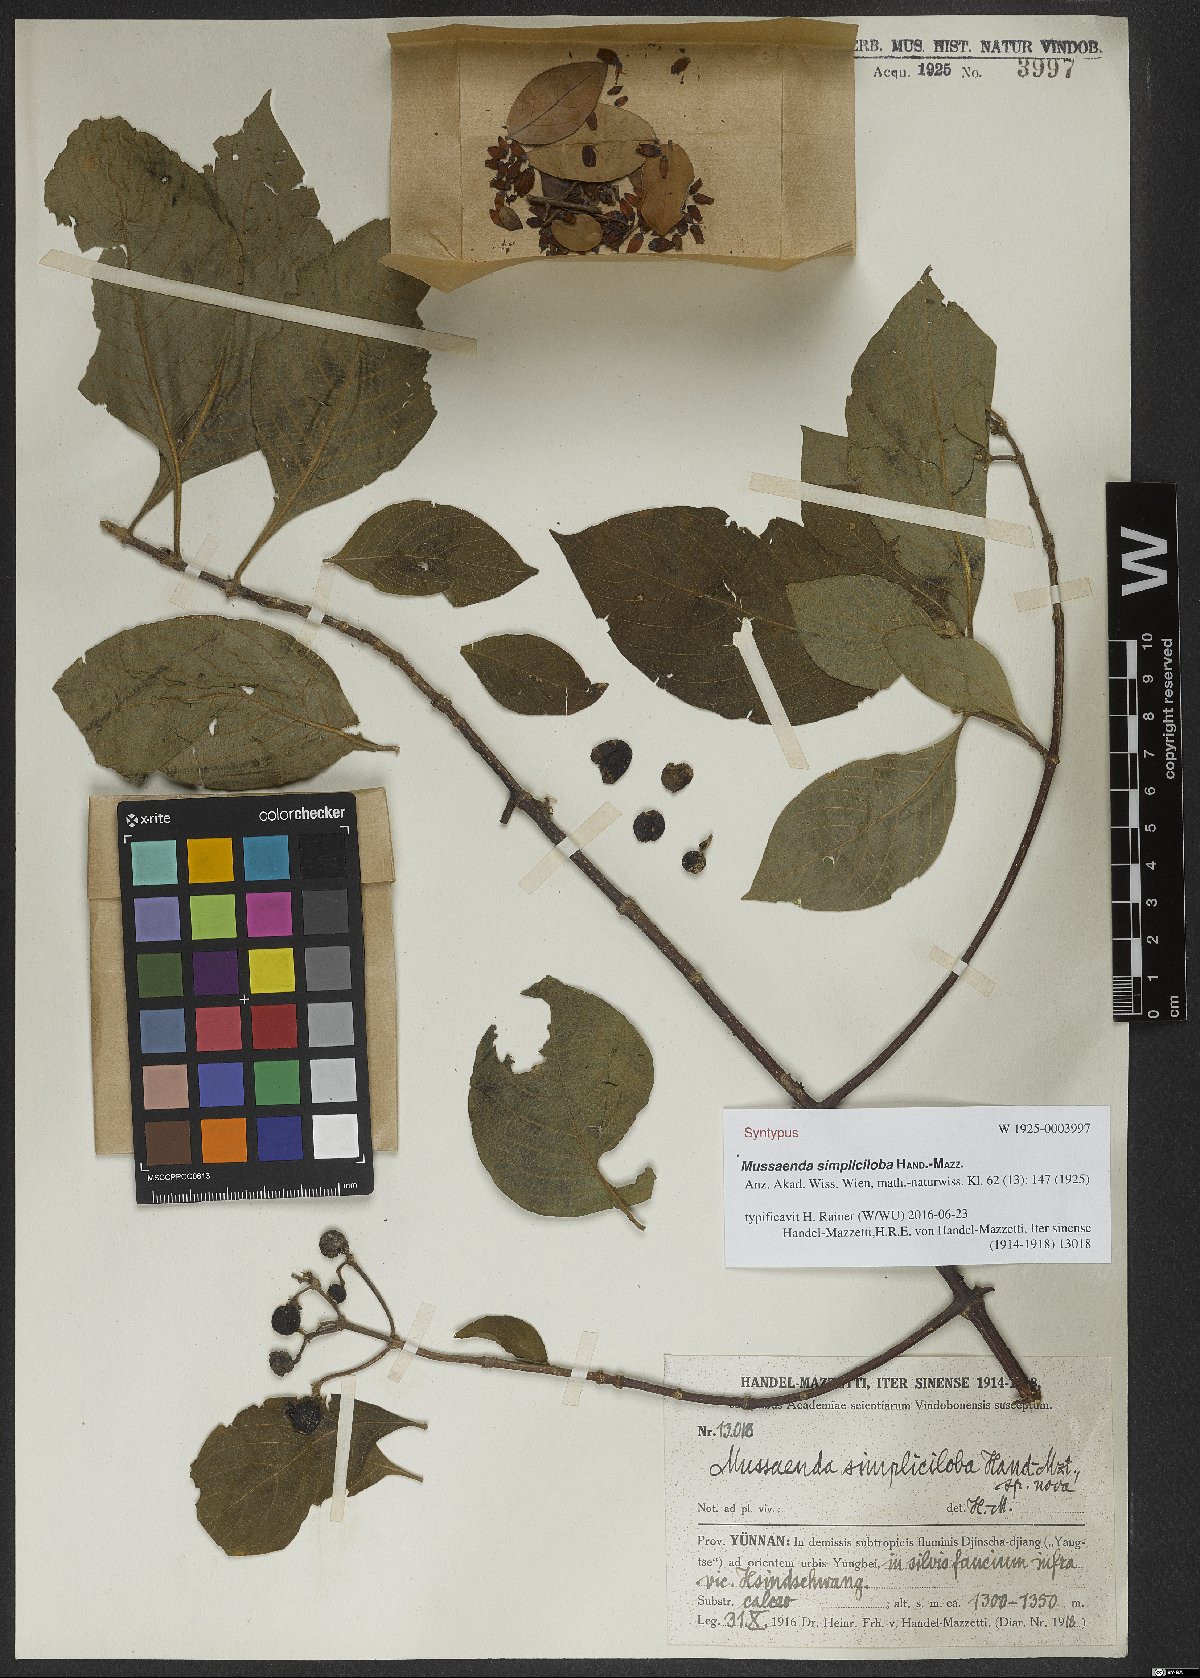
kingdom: Plantae
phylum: Tracheophyta
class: Magnoliopsida
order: Gentianales
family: Rubiaceae
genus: Mussaenda
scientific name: Mussaenda simpliciloba
